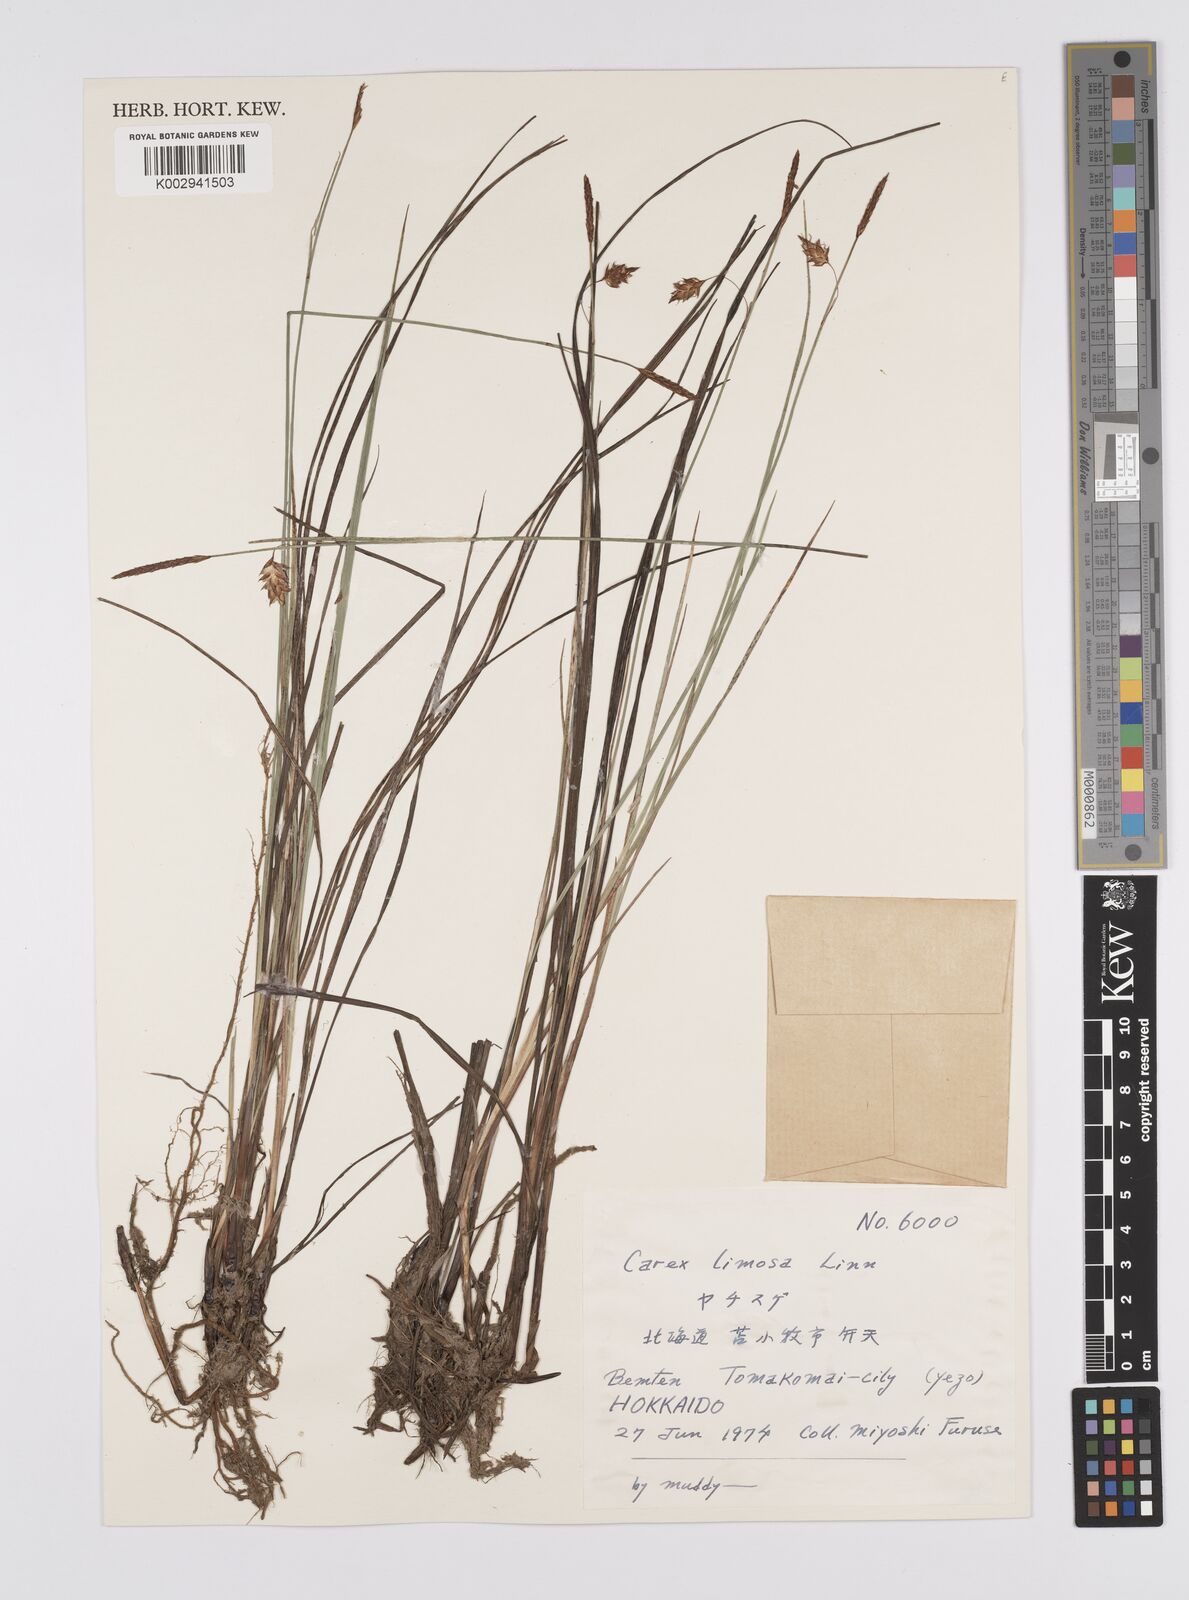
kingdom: Plantae
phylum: Tracheophyta
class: Liliopsida
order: Poales
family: Cyperaceae
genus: Carex
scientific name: Carex limosa
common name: Bog sedge
